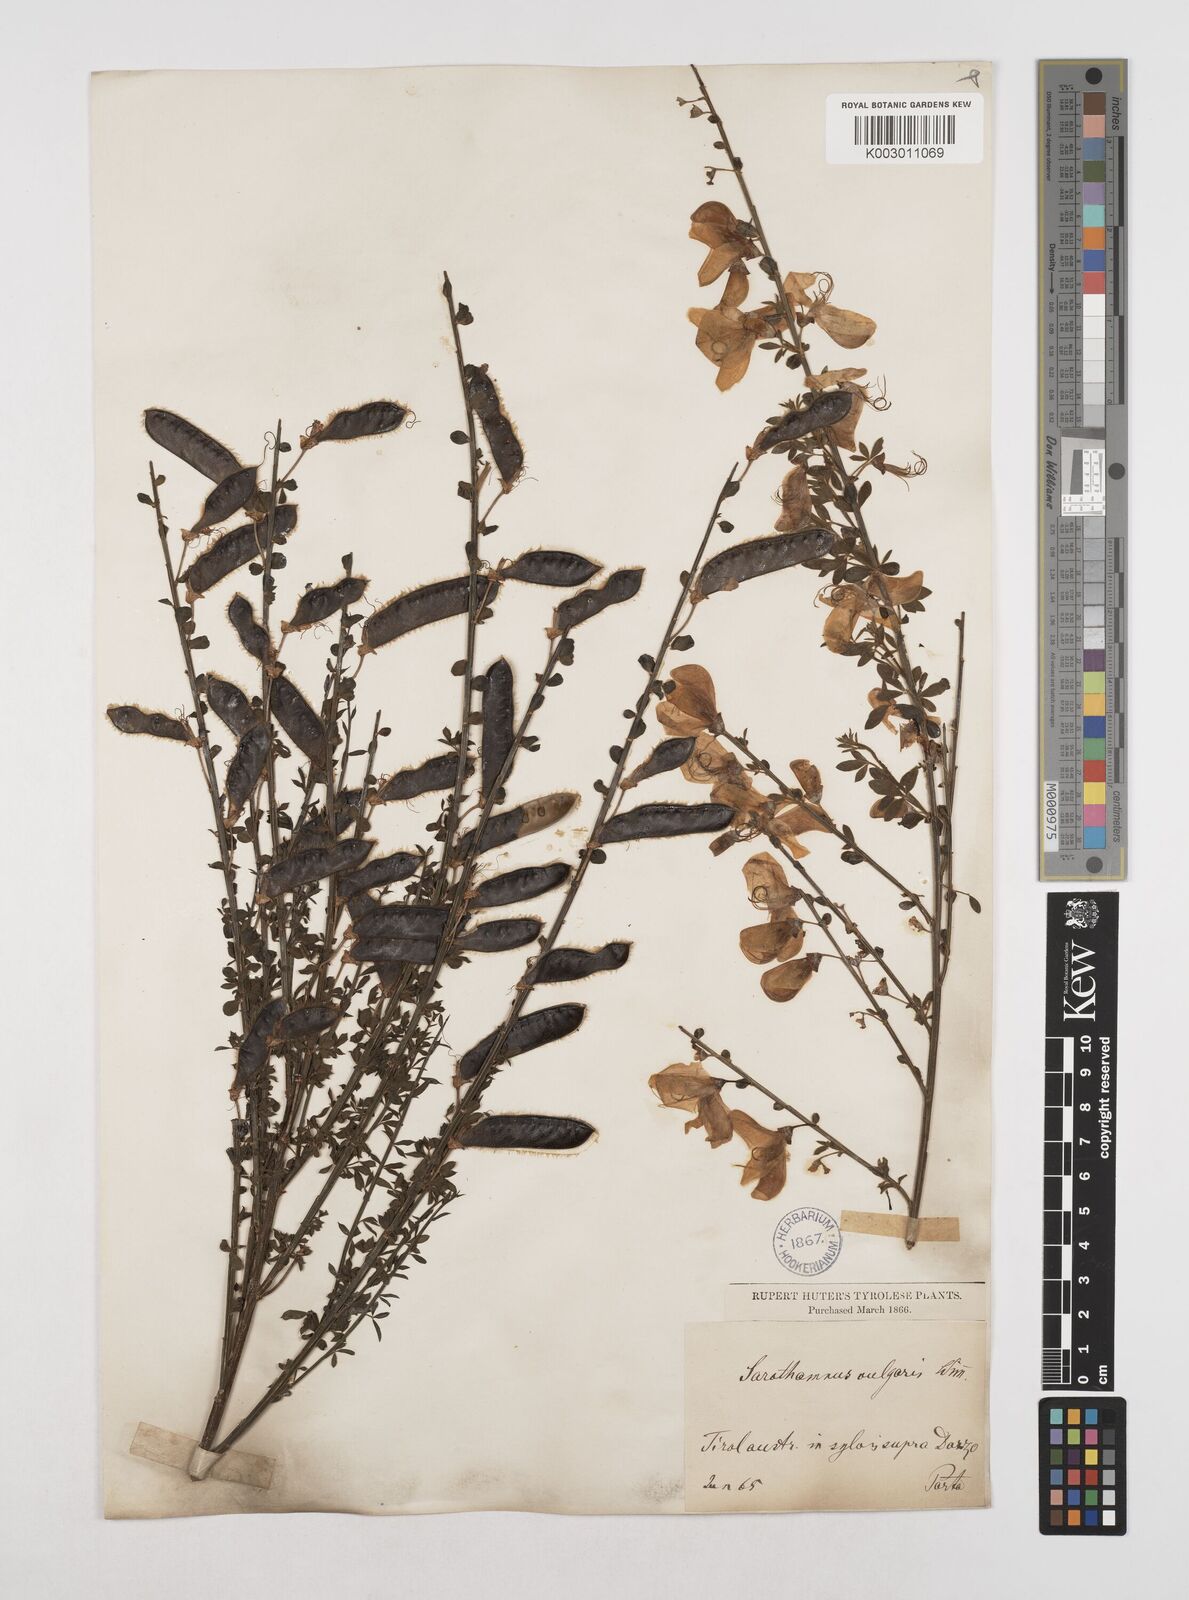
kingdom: Plantae
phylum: Tracheophyta
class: Magnoliopsida
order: Fabales
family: Fabaceae
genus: Cytisus
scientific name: Cytisus scoparius
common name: Scotch broom
